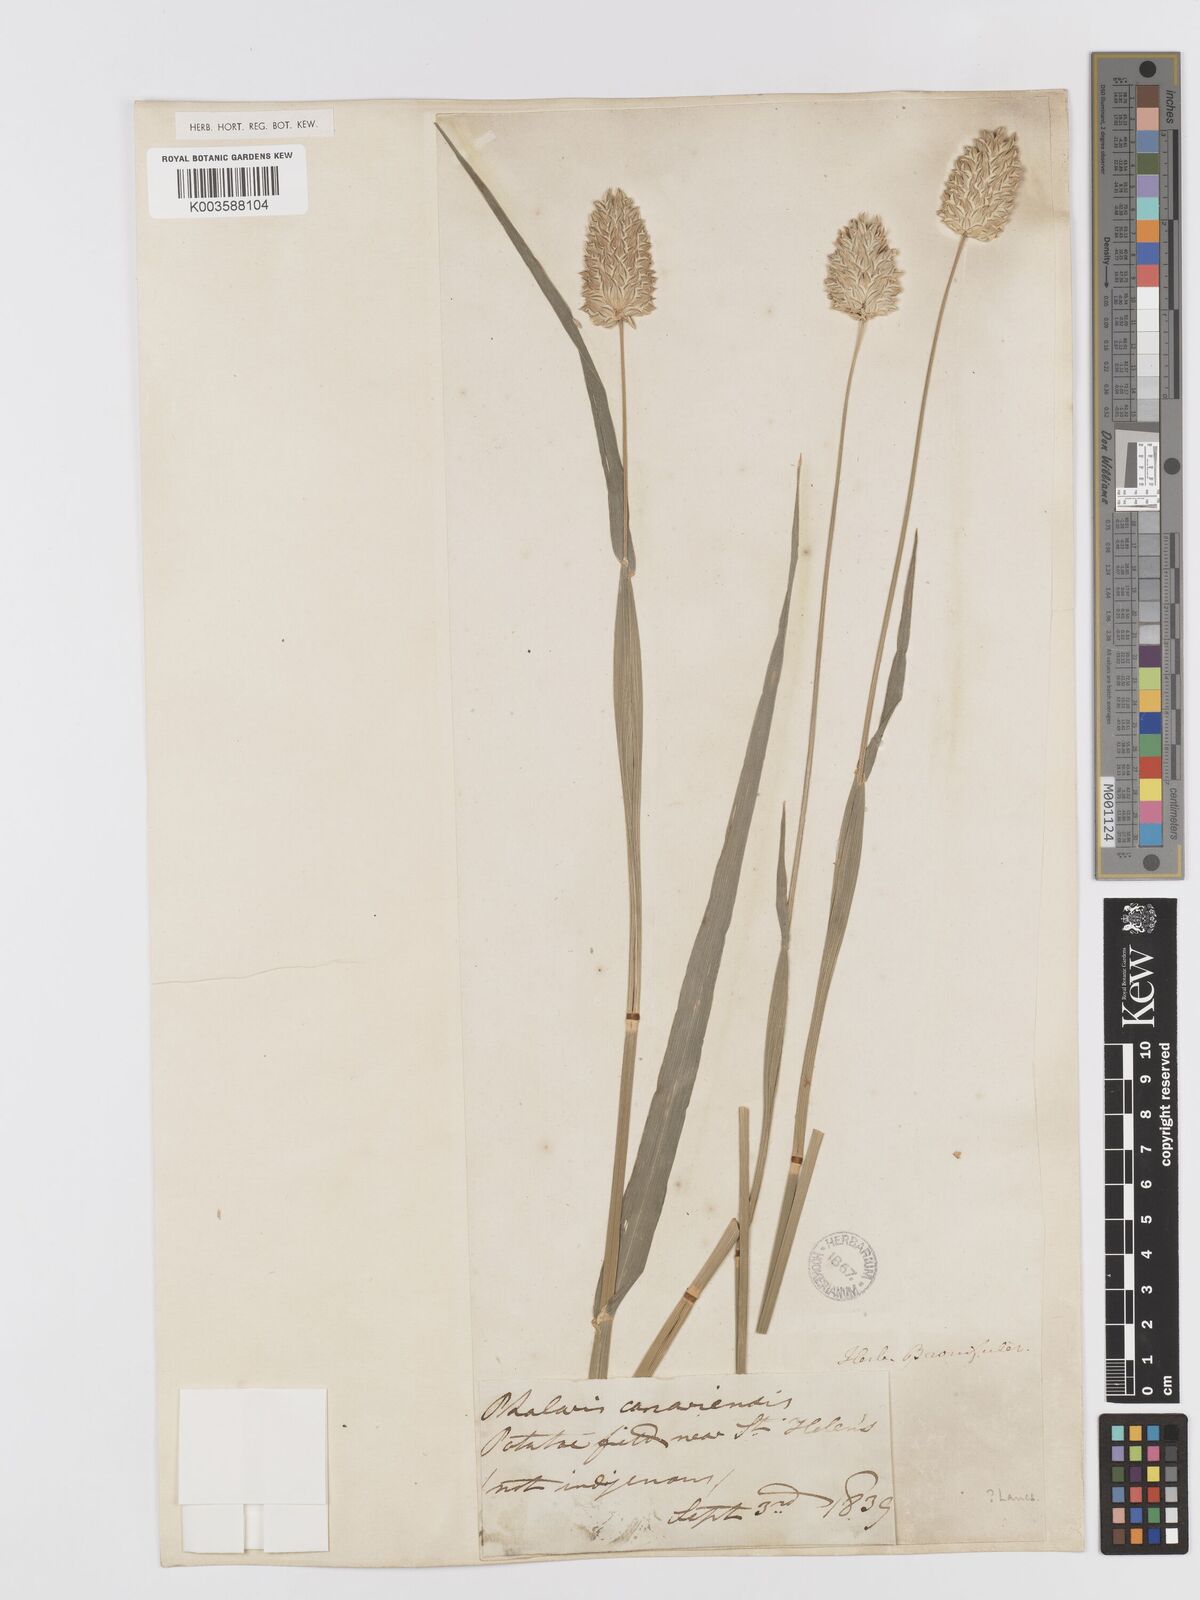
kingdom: Plantae
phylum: Tracheophyta
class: Liliopsida
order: Poales
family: Poaceae
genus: Phalaris
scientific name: Phalaris canariensis
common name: Annual canarygrass
